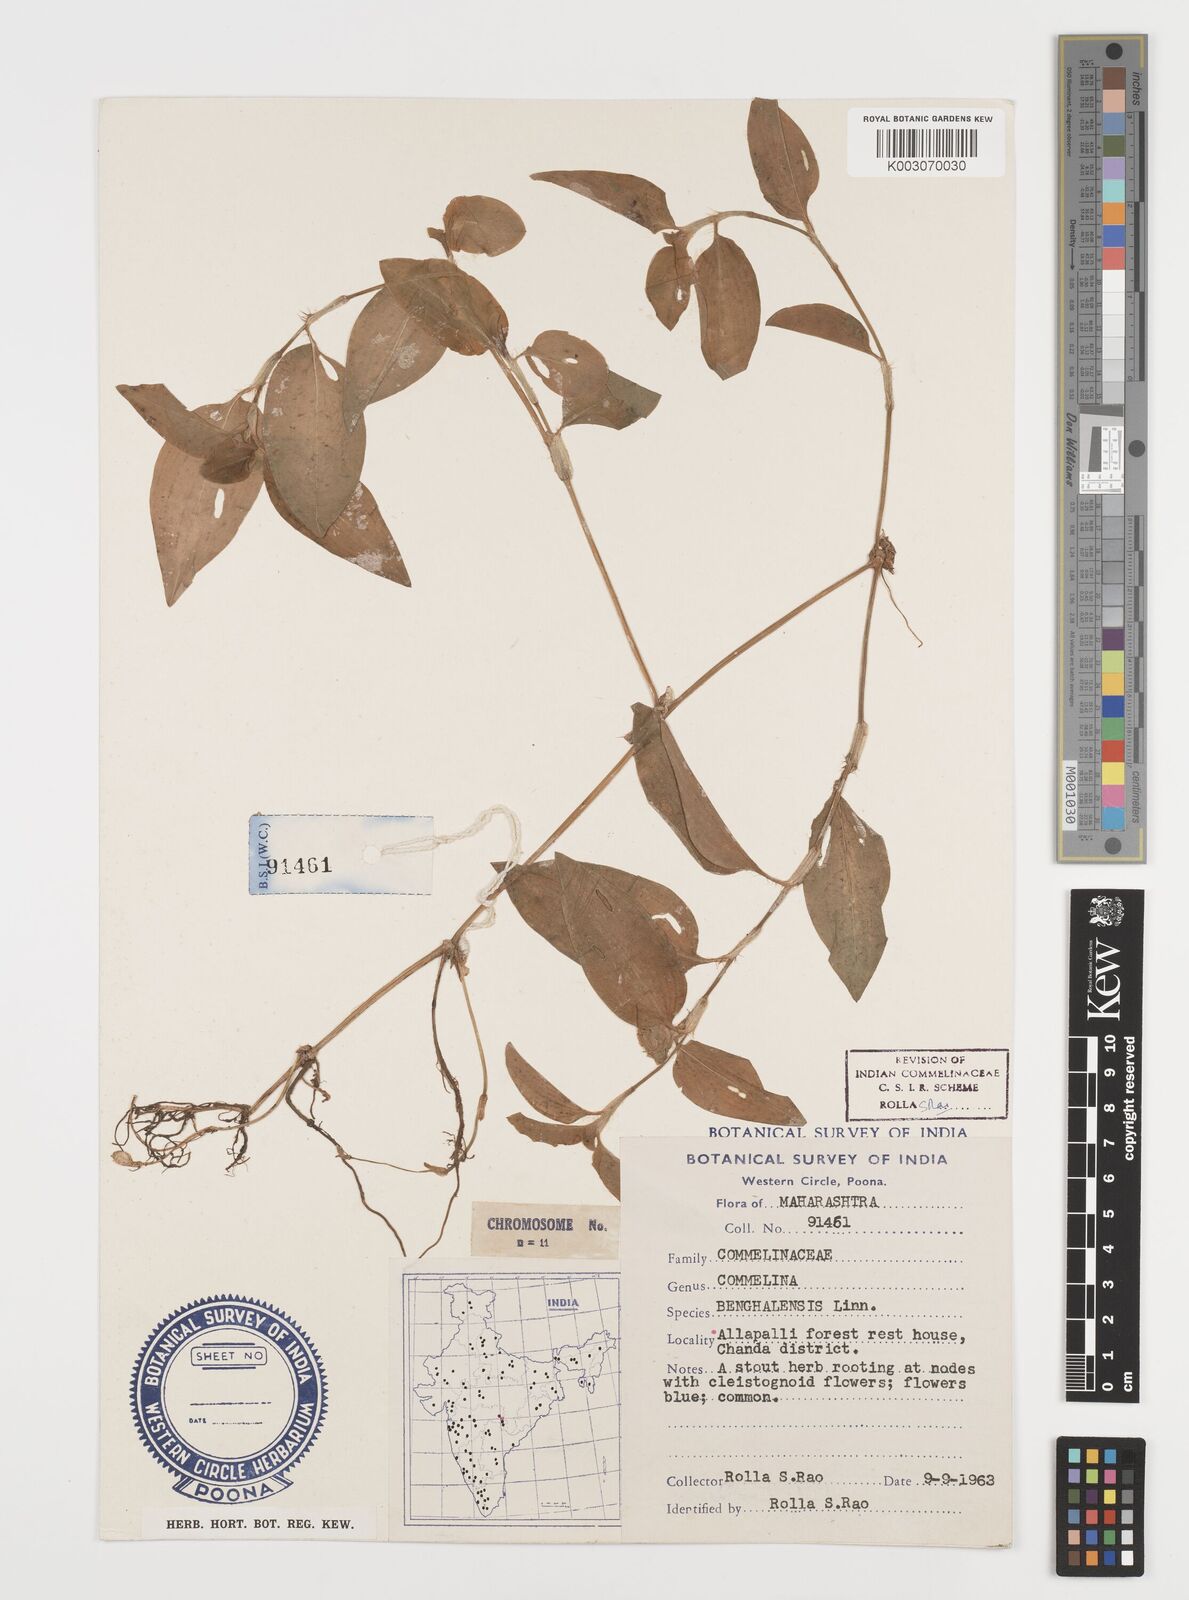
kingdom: Plantae
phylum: Tracheophyta
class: Liliopsida
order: Commelinales
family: Commelinaceae
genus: Commelina
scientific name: Commelina
